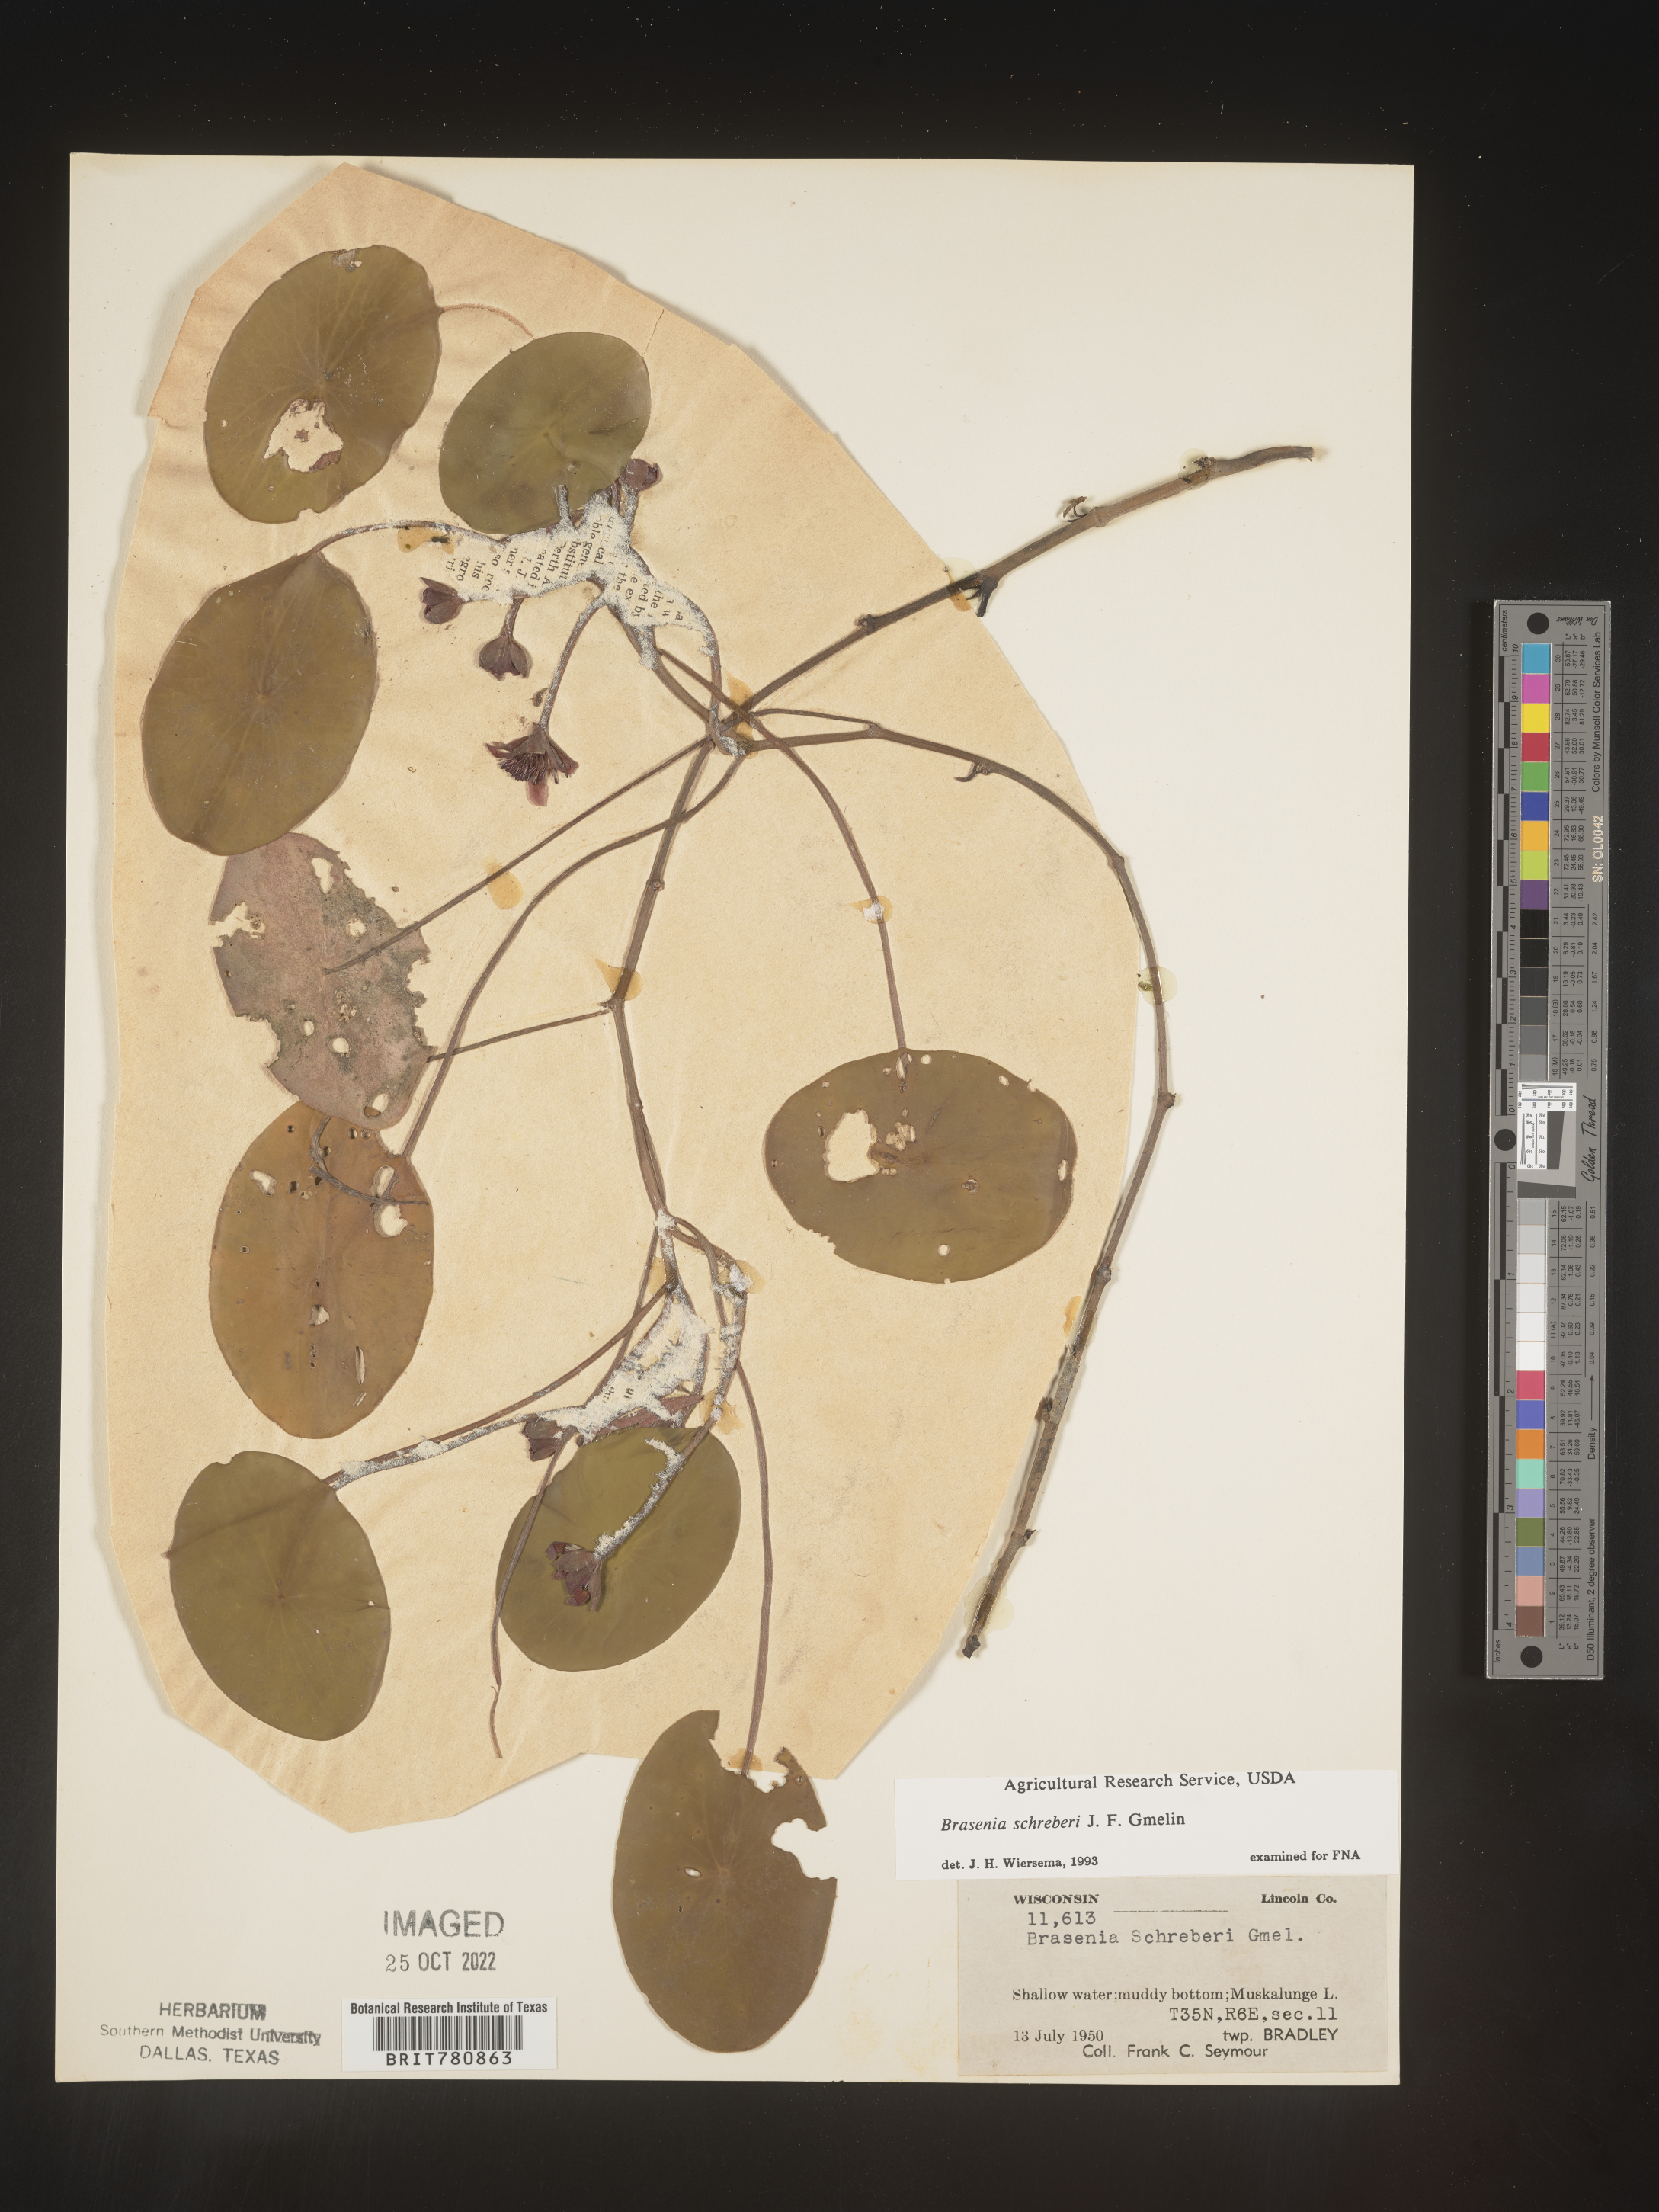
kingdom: Plantae
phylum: Tracheophyta
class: Magnoliopsida
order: Nymphaeales
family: Cabombaceae
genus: Brasenia
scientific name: Brasenia schreberi
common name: Water-shield
